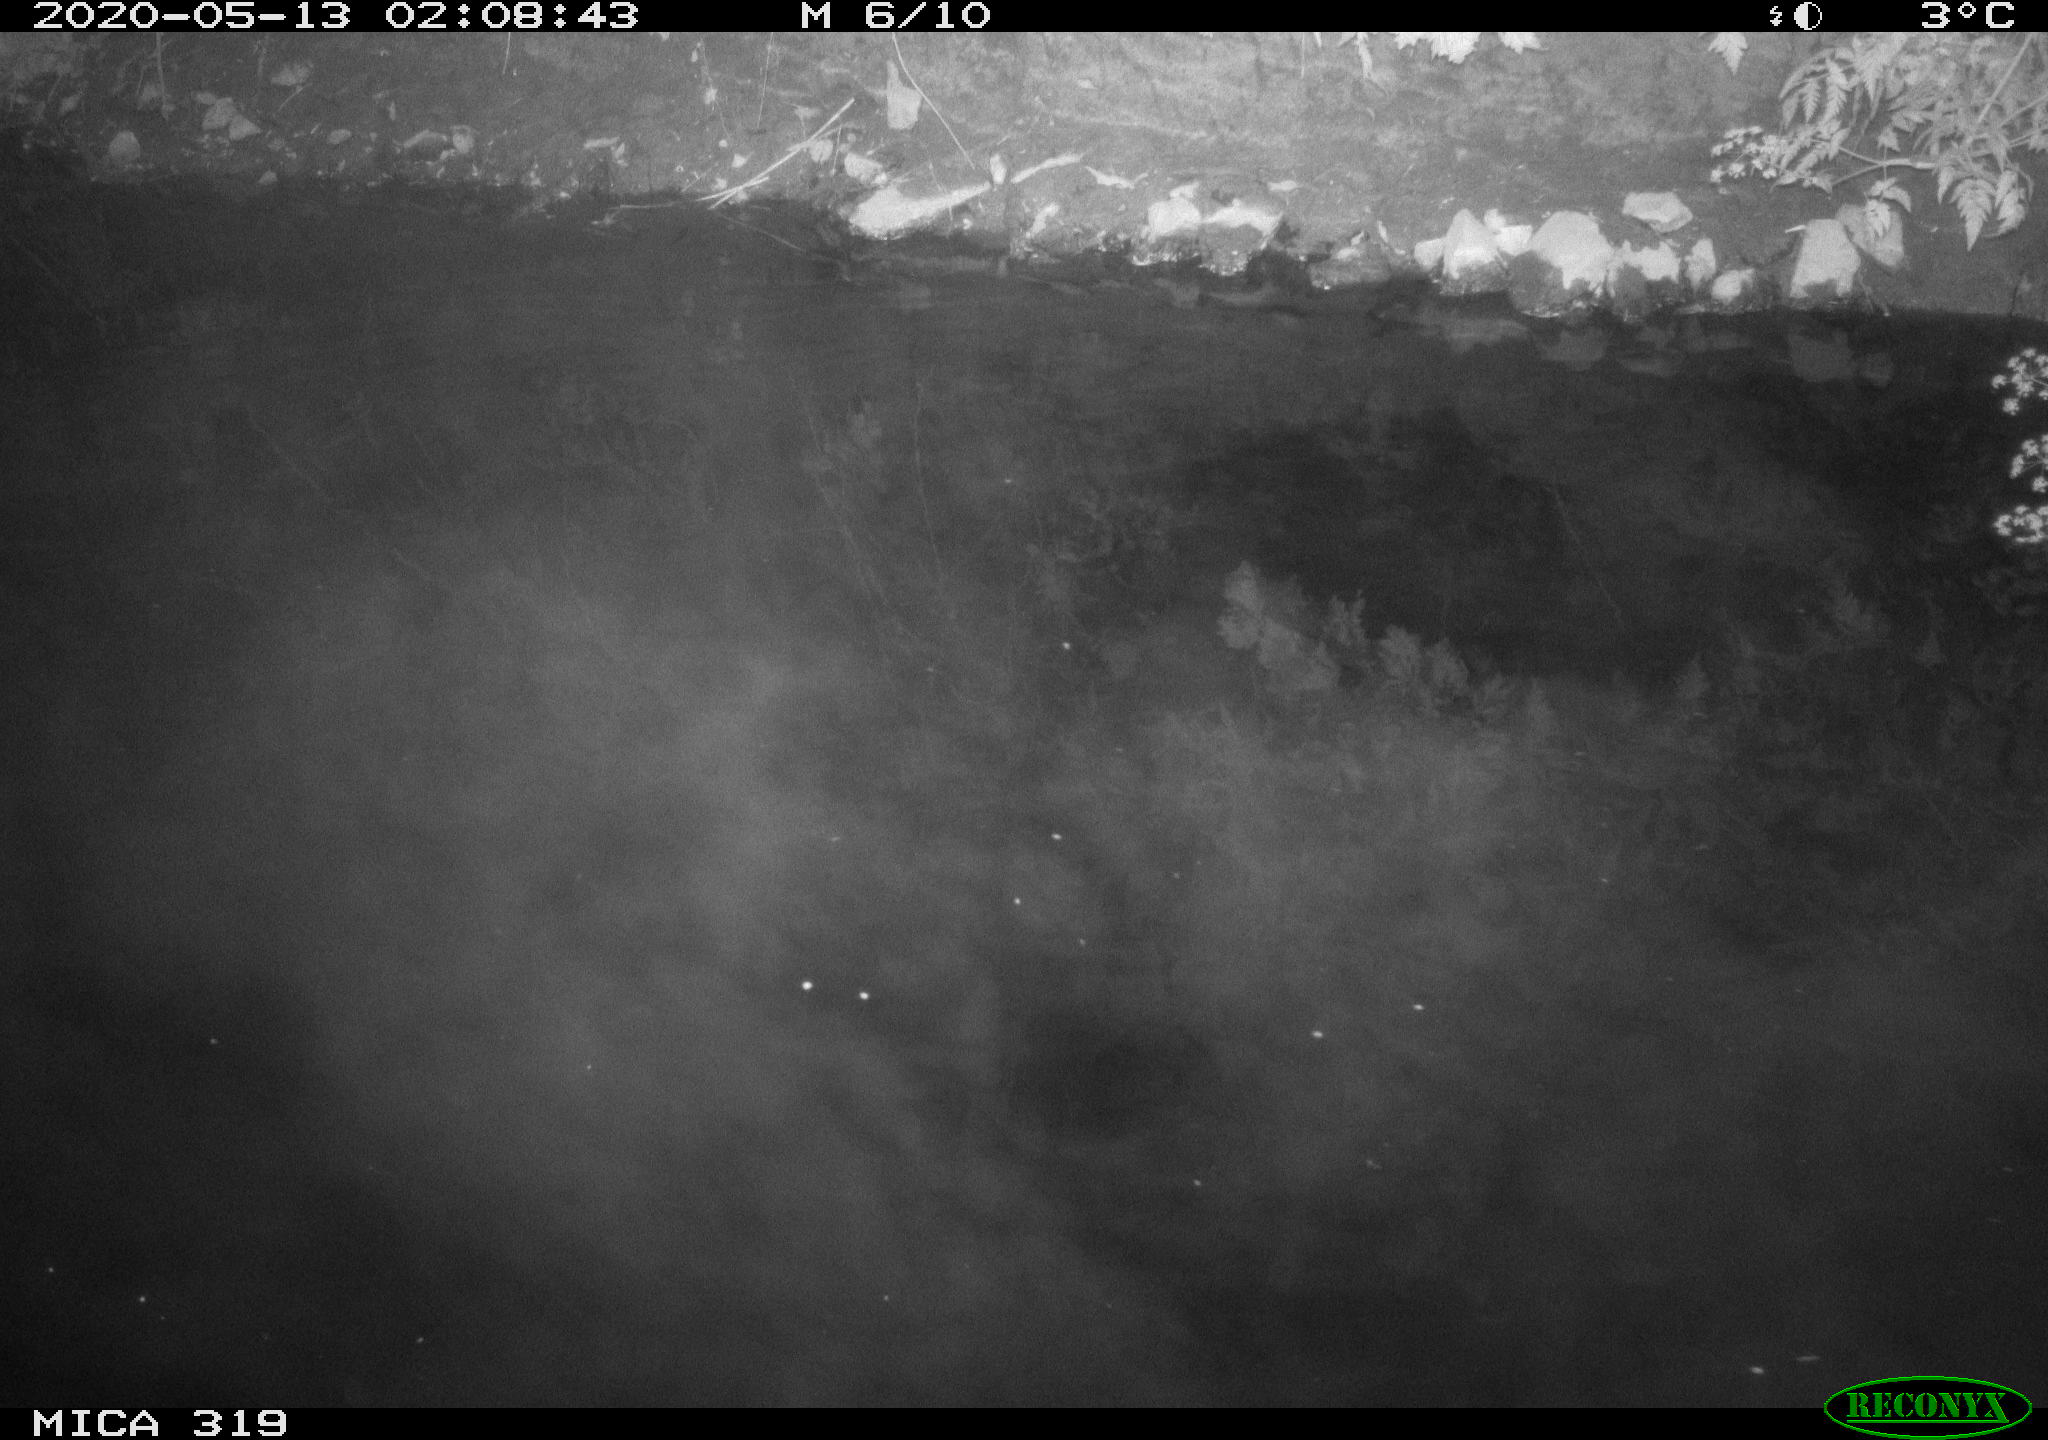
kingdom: Animalia
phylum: Chordata
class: Aves
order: Anseriformes
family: Anatidae
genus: Anas
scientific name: Anas platyrhynchos
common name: Mallard
